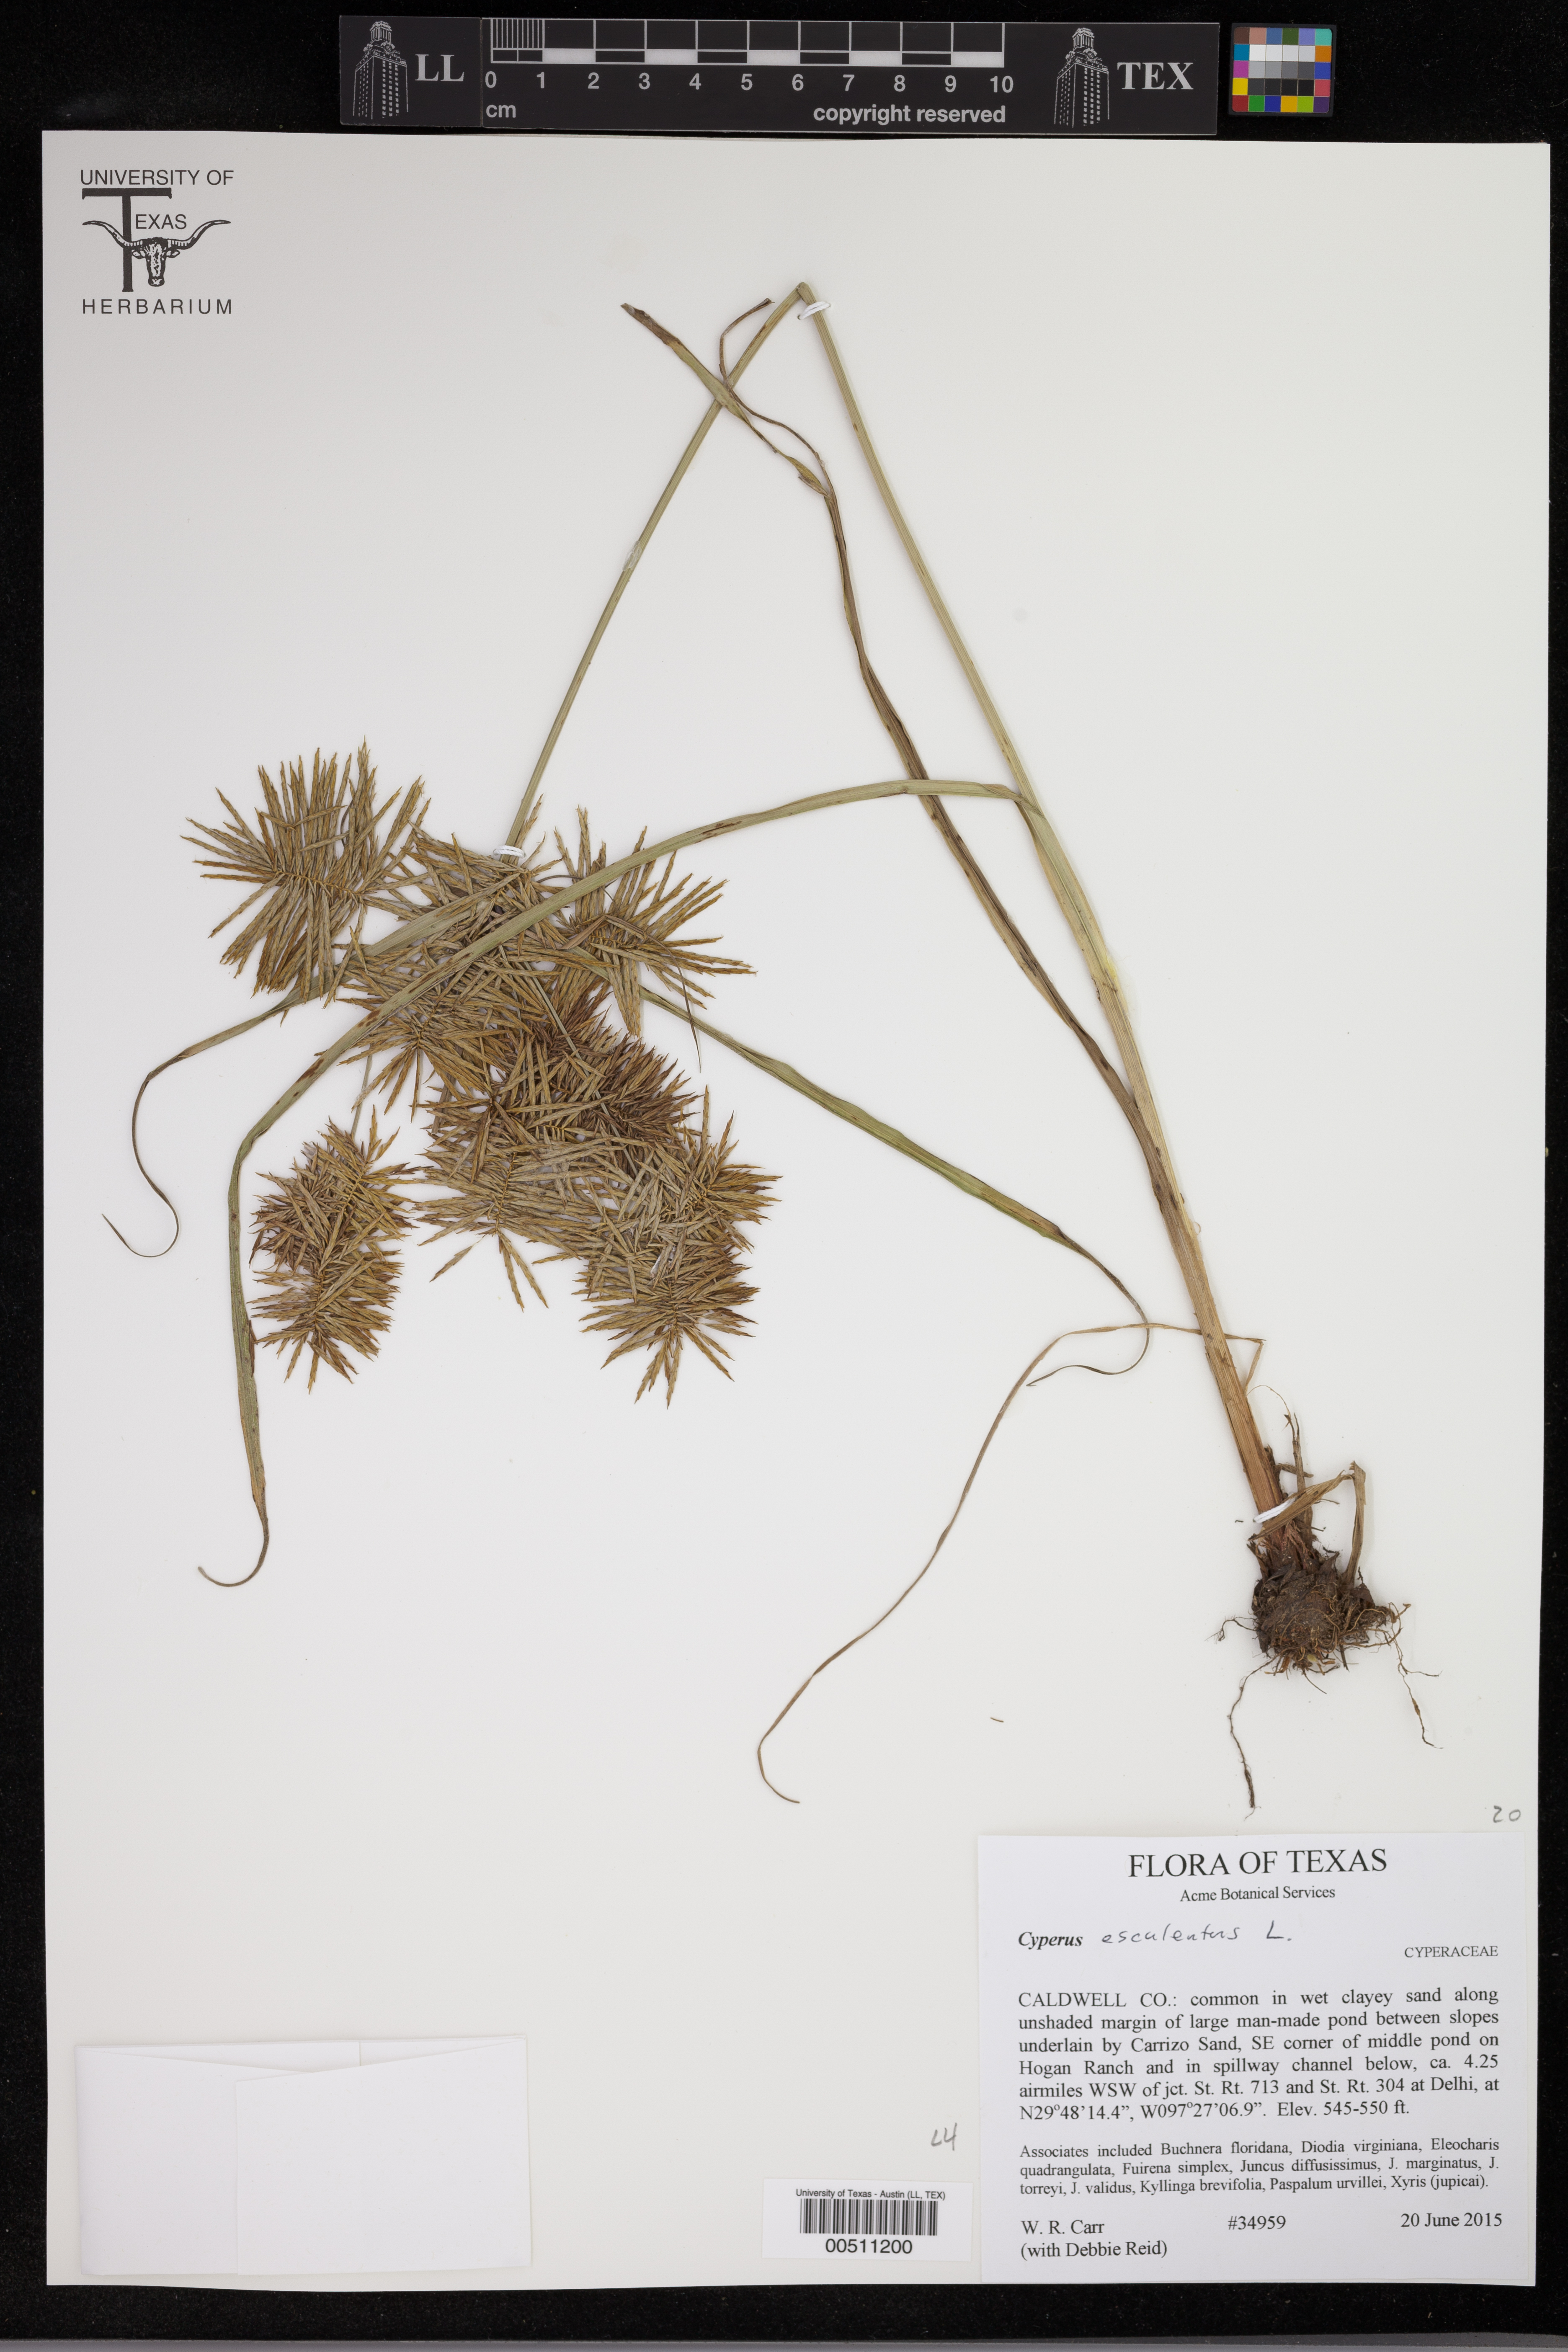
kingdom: Plantae
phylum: Tracheophyta
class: Liliopsida
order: Poales
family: Cyperaceae
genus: Cyperus
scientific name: Cyperus esculentus
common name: Yellow nutsedge
